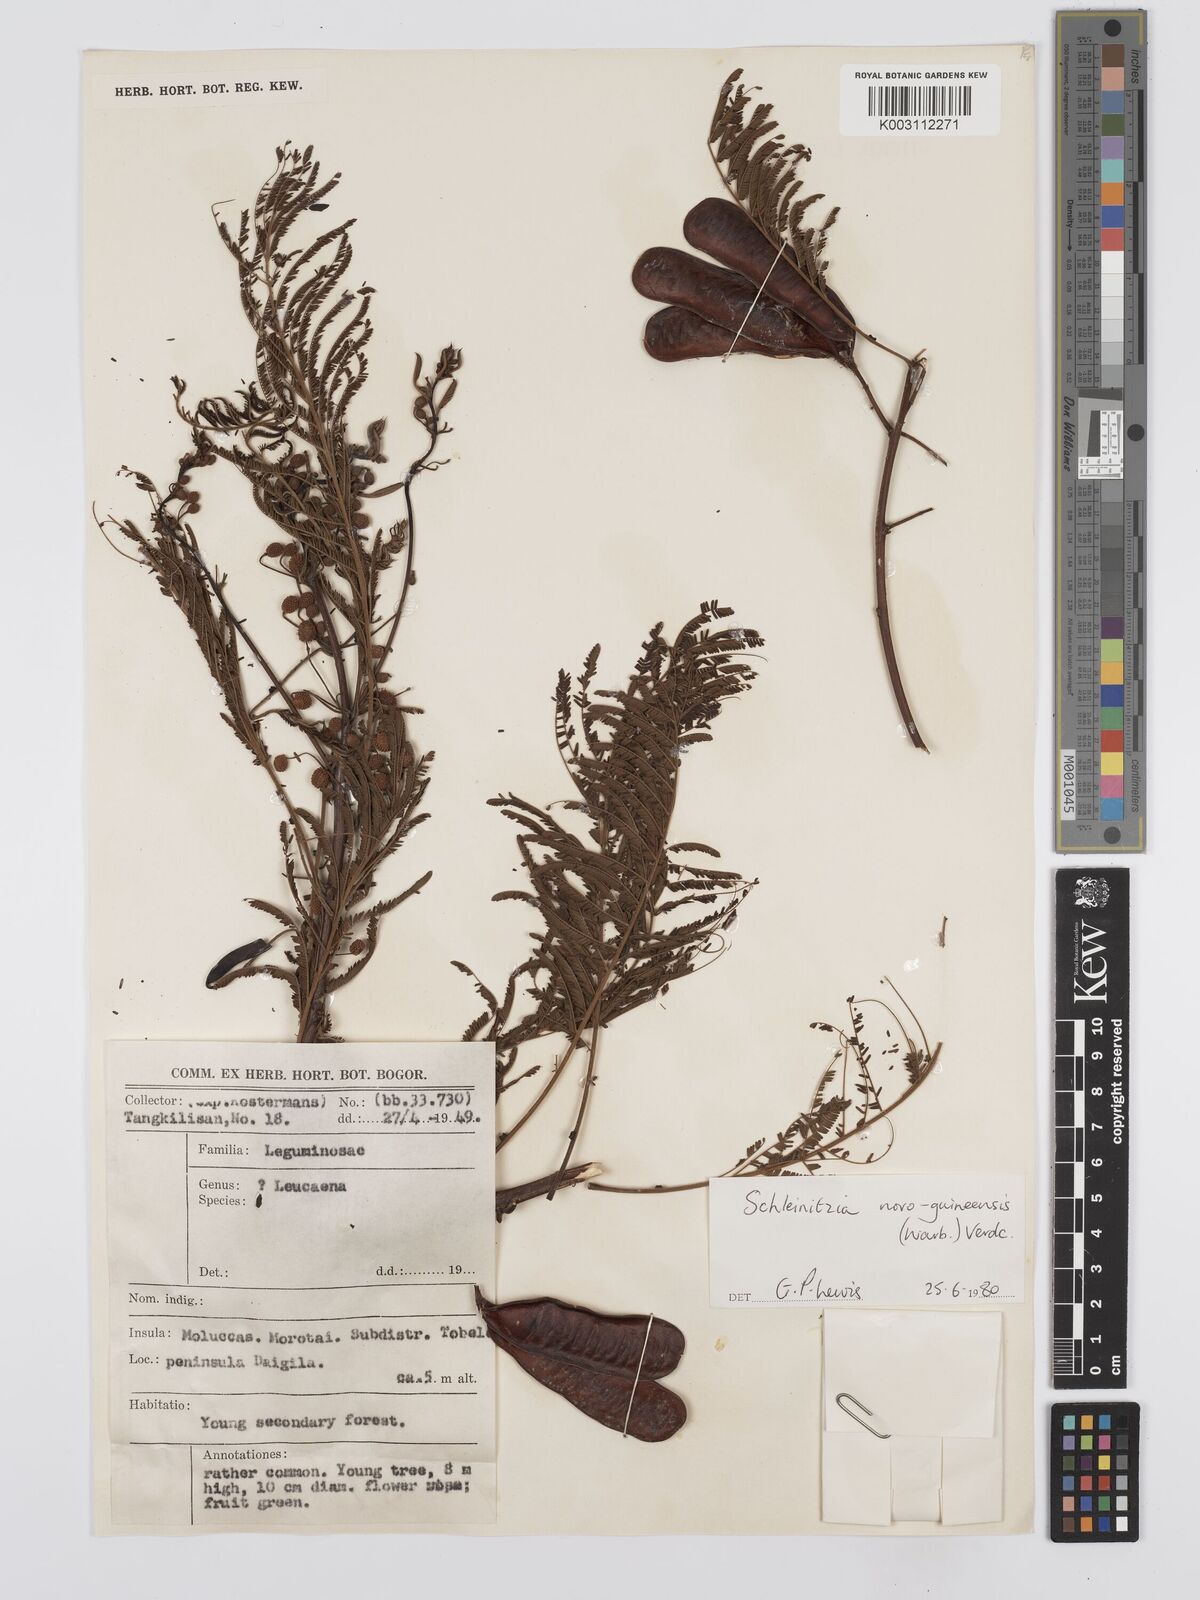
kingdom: Plantae
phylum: Tracheophyta
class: Magnoliopsida
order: Fabales
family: Fabaceae
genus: Schleinitzia
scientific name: Schleinitzia novoguineensis
